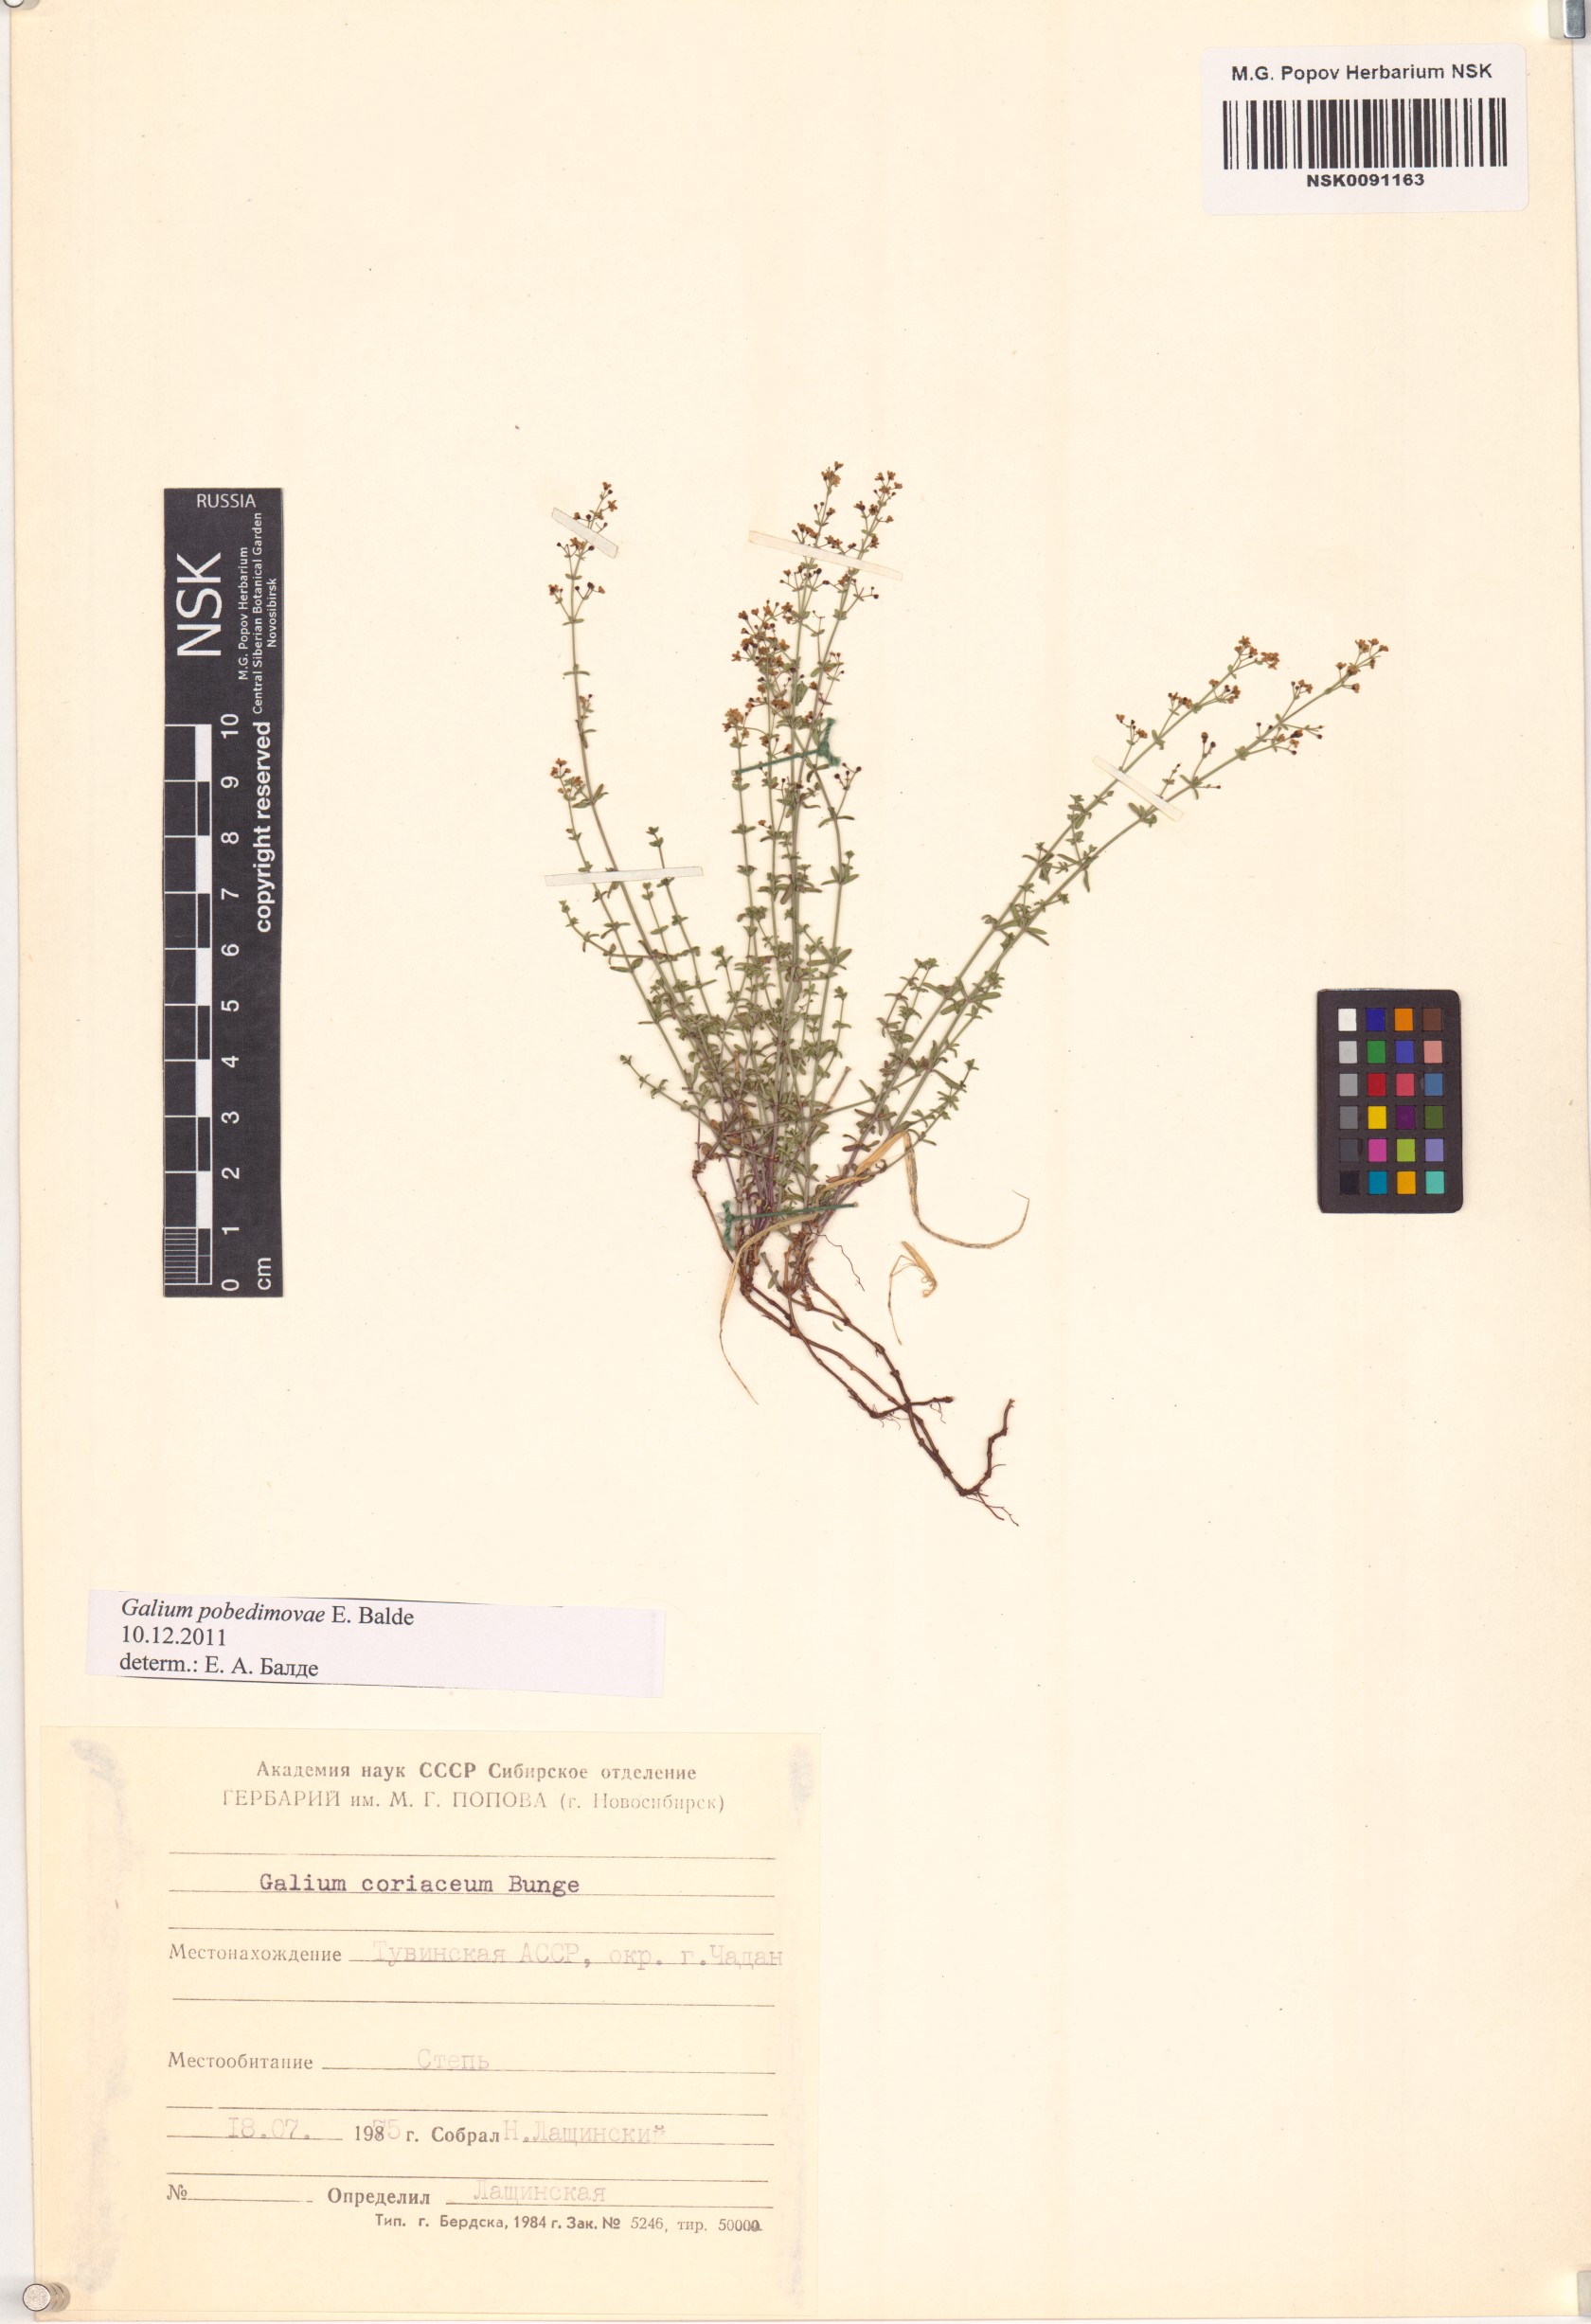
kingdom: Plantae
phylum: Tracheophyta
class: Magnoliopsida
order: Gentianales
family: Rubiaceae
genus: Galium
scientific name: Galium pobedimovae
